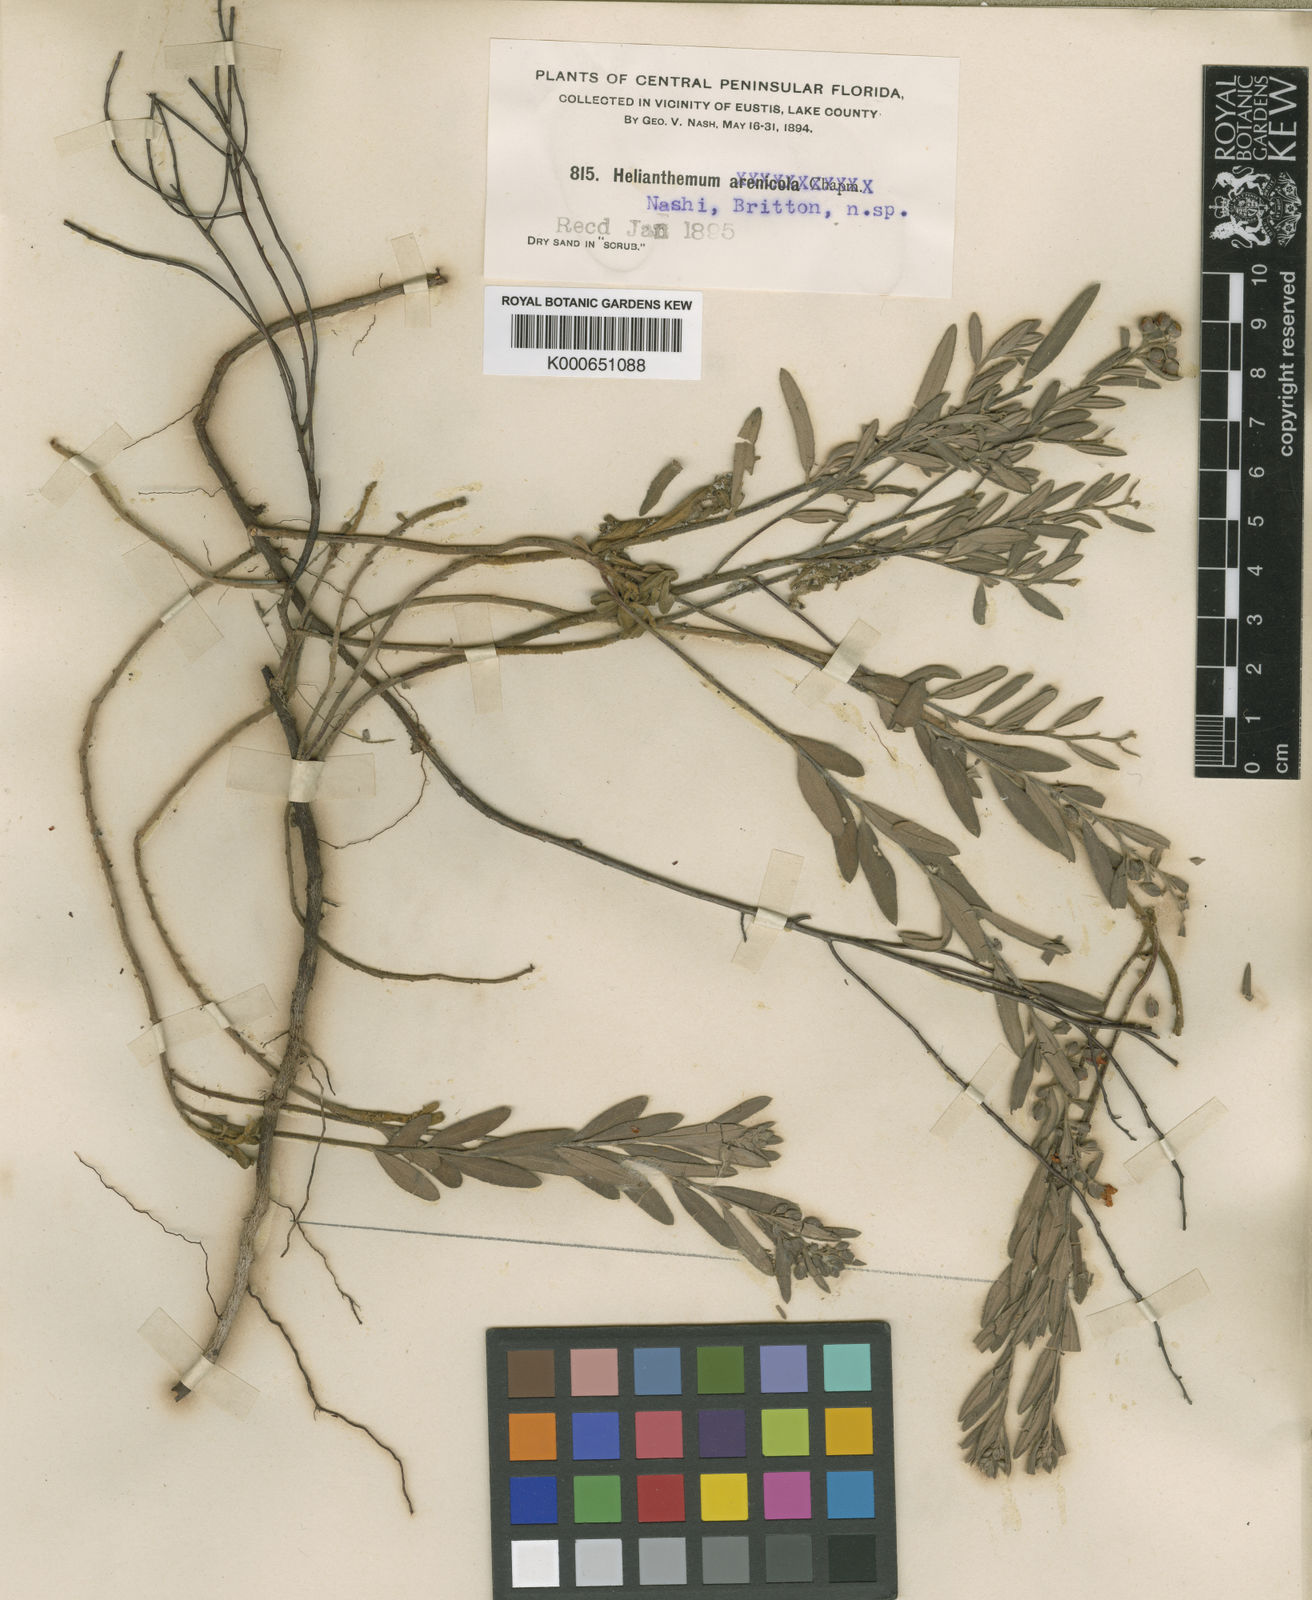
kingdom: Plantae
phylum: Tracheophyta
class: Magnoliopsida
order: Malvales
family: Cistaceae
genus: Crocanthemum
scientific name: Crocanthemum nashii
